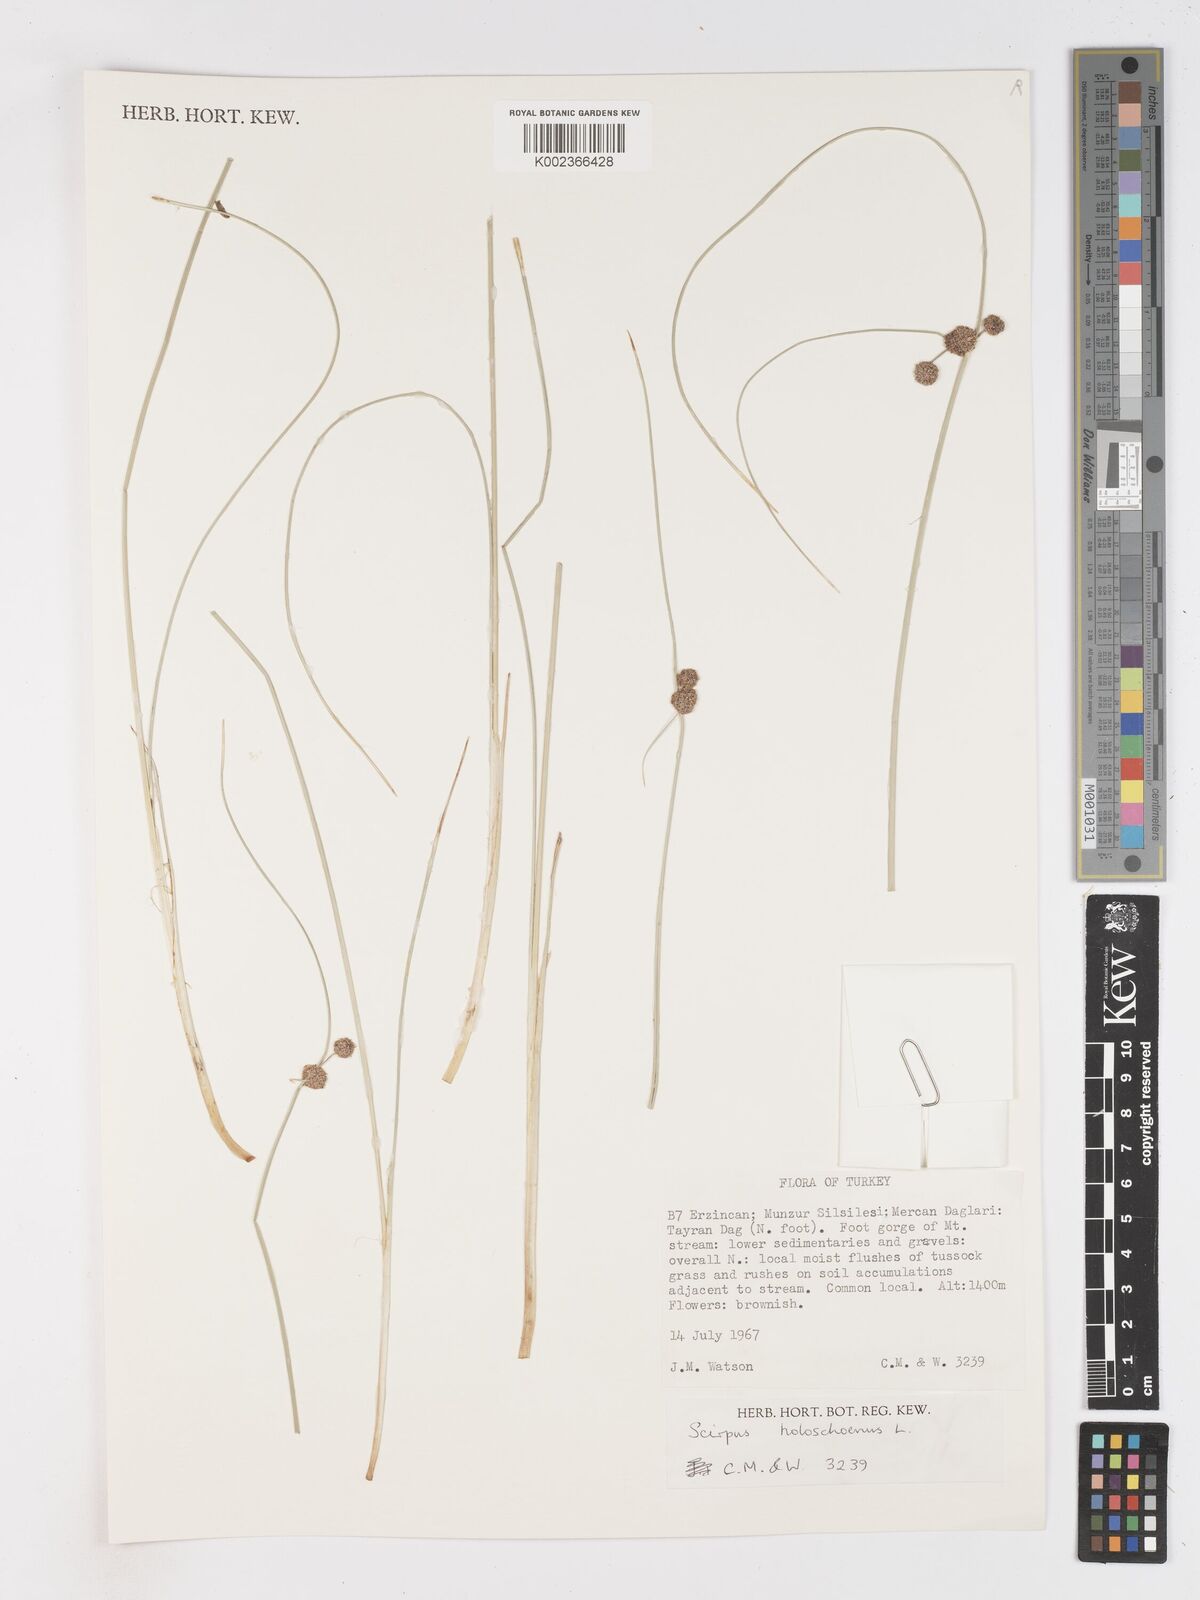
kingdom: Plantae
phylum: Tracheophyta
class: Liliopsida
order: Poales
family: Cyperaceae
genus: Scirpoides
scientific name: Scirpoides holoschoenus
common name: Round-headed club-rush
